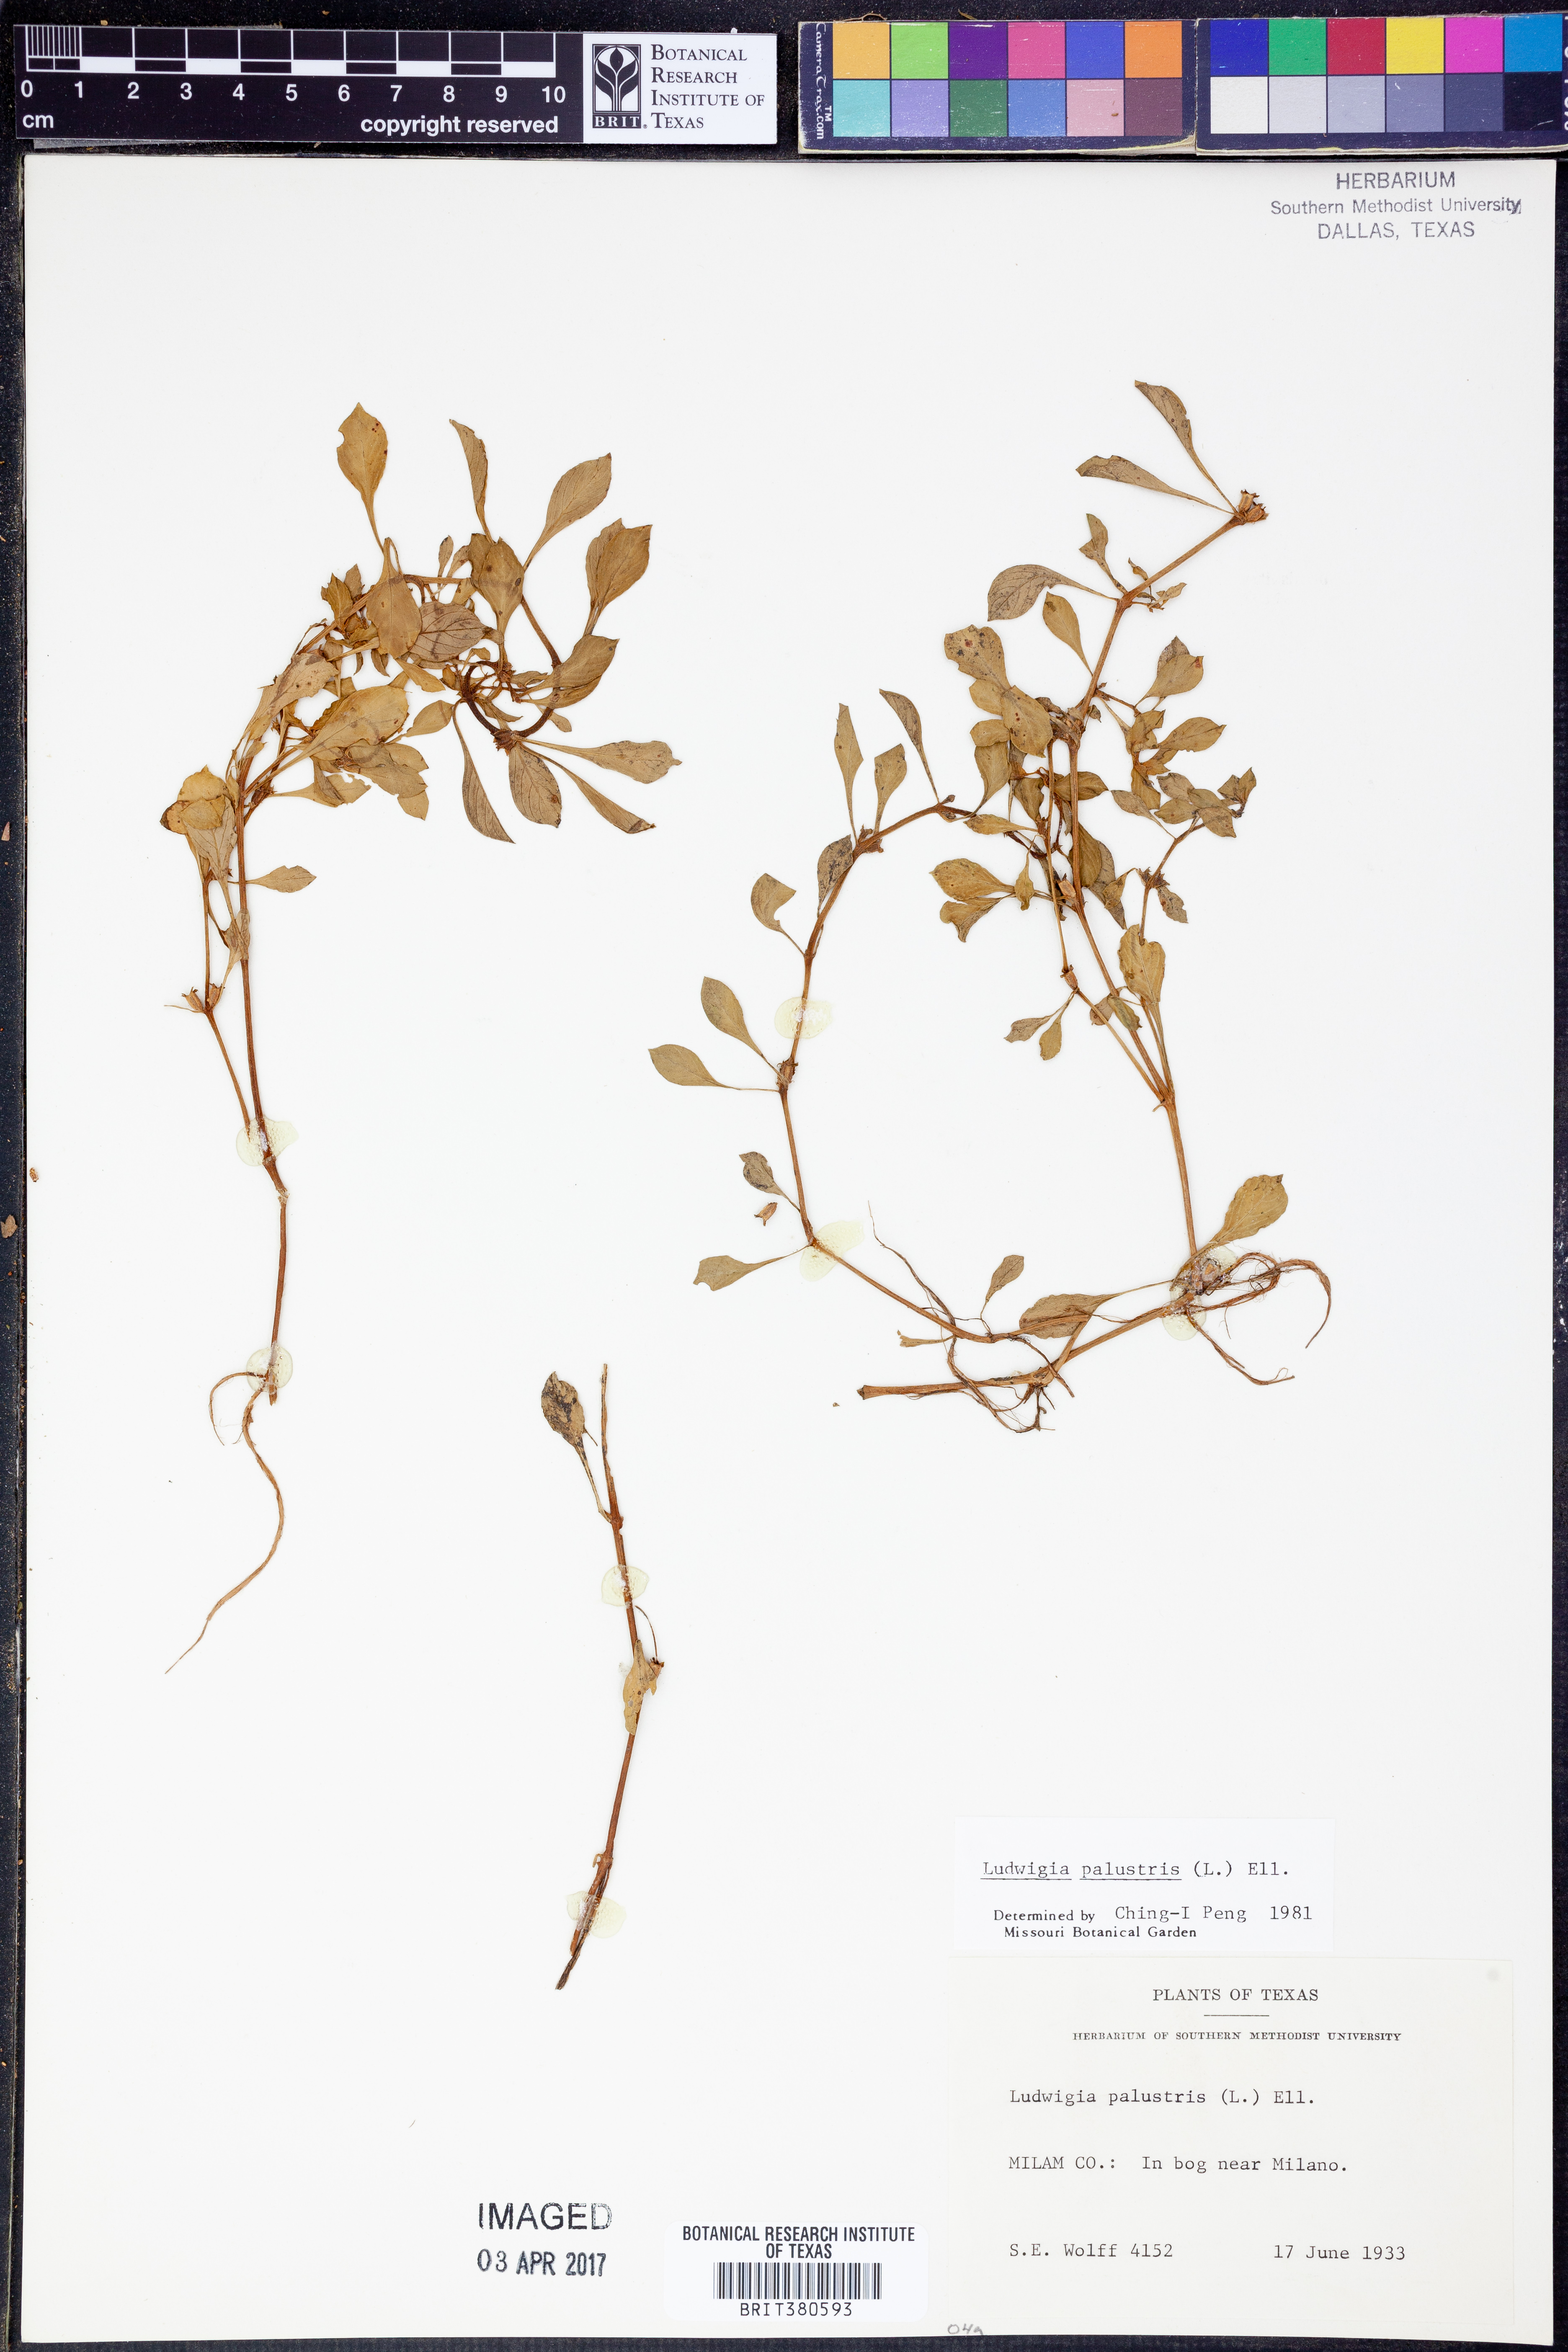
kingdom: Plantae
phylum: Tracheophyta
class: Magnoliopsida
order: Myrtales
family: Onagraceae
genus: Ludwigia
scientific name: Ludwigia palustris
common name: Hampshire-purslane
